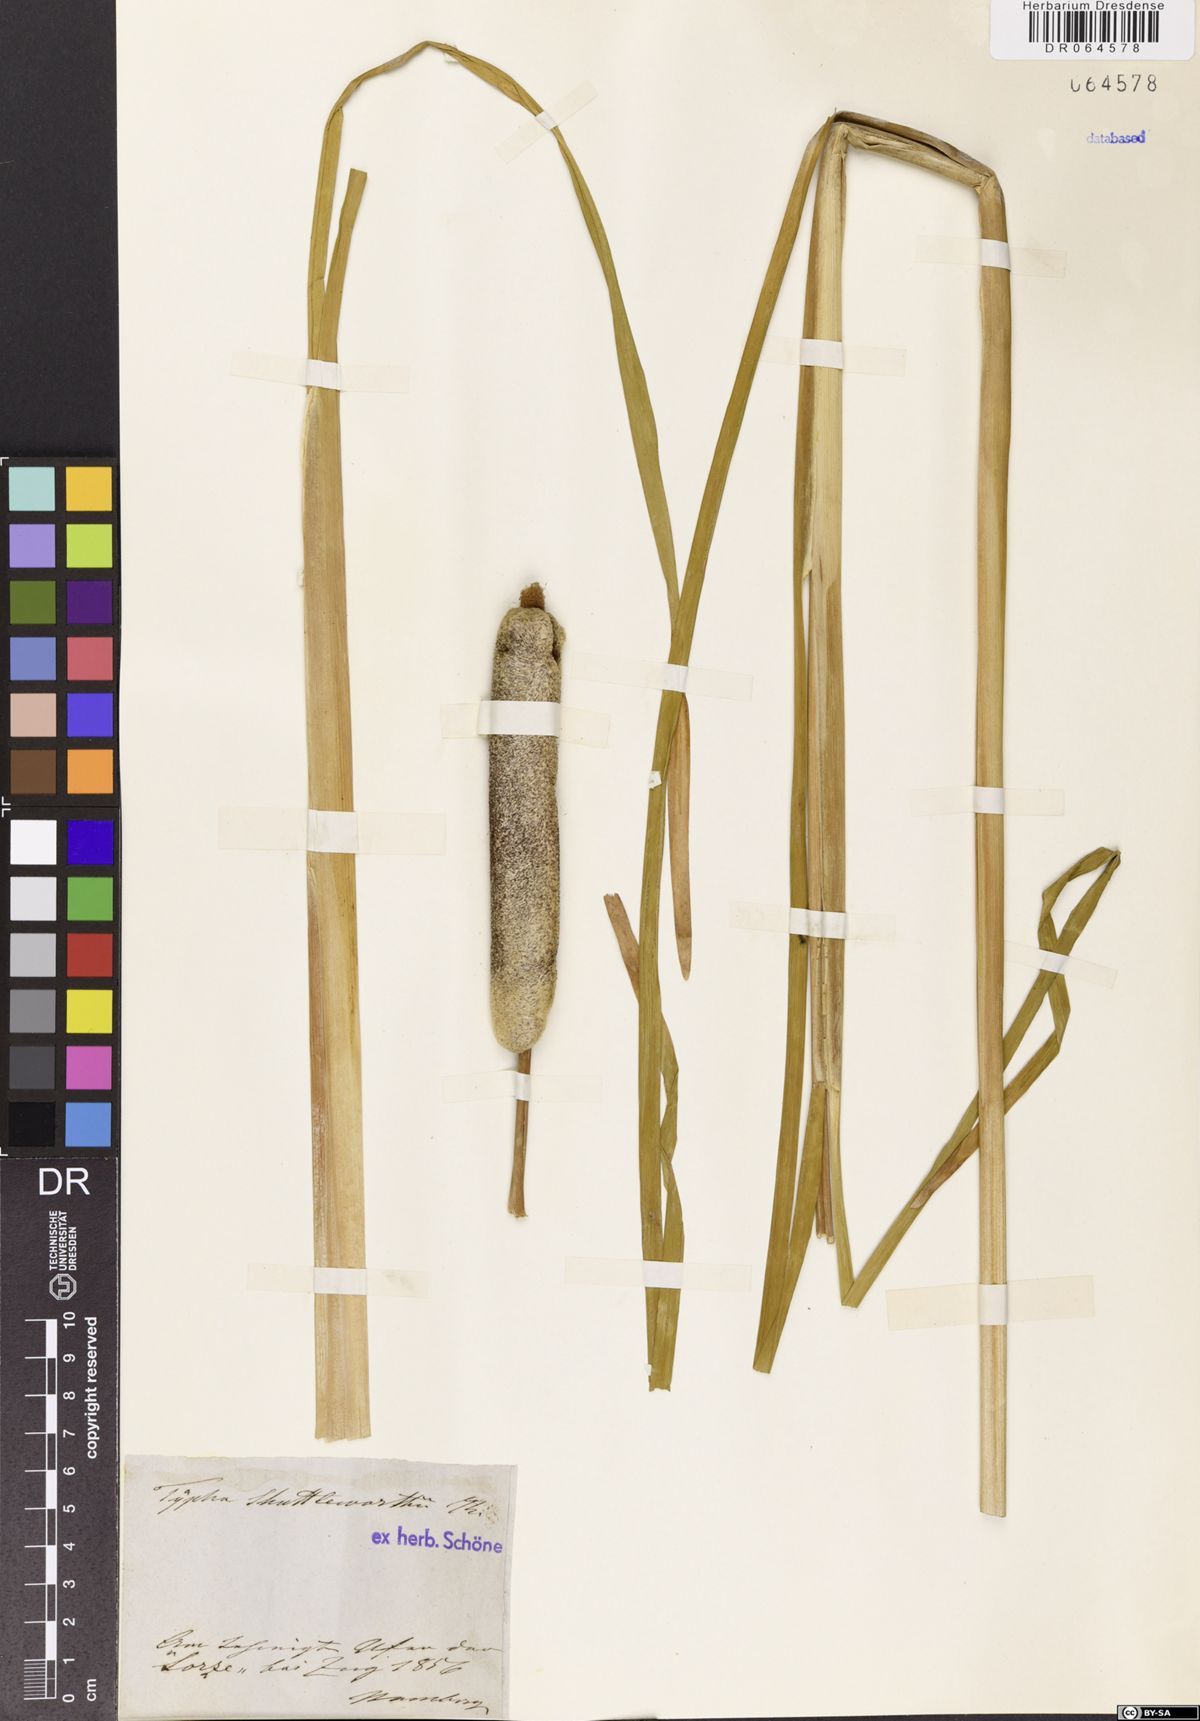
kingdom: Plantae
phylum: Tracheophyta
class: Liliopsida
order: Poales
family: Typhaceae
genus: Typha
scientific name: Typha shuttleworthii
